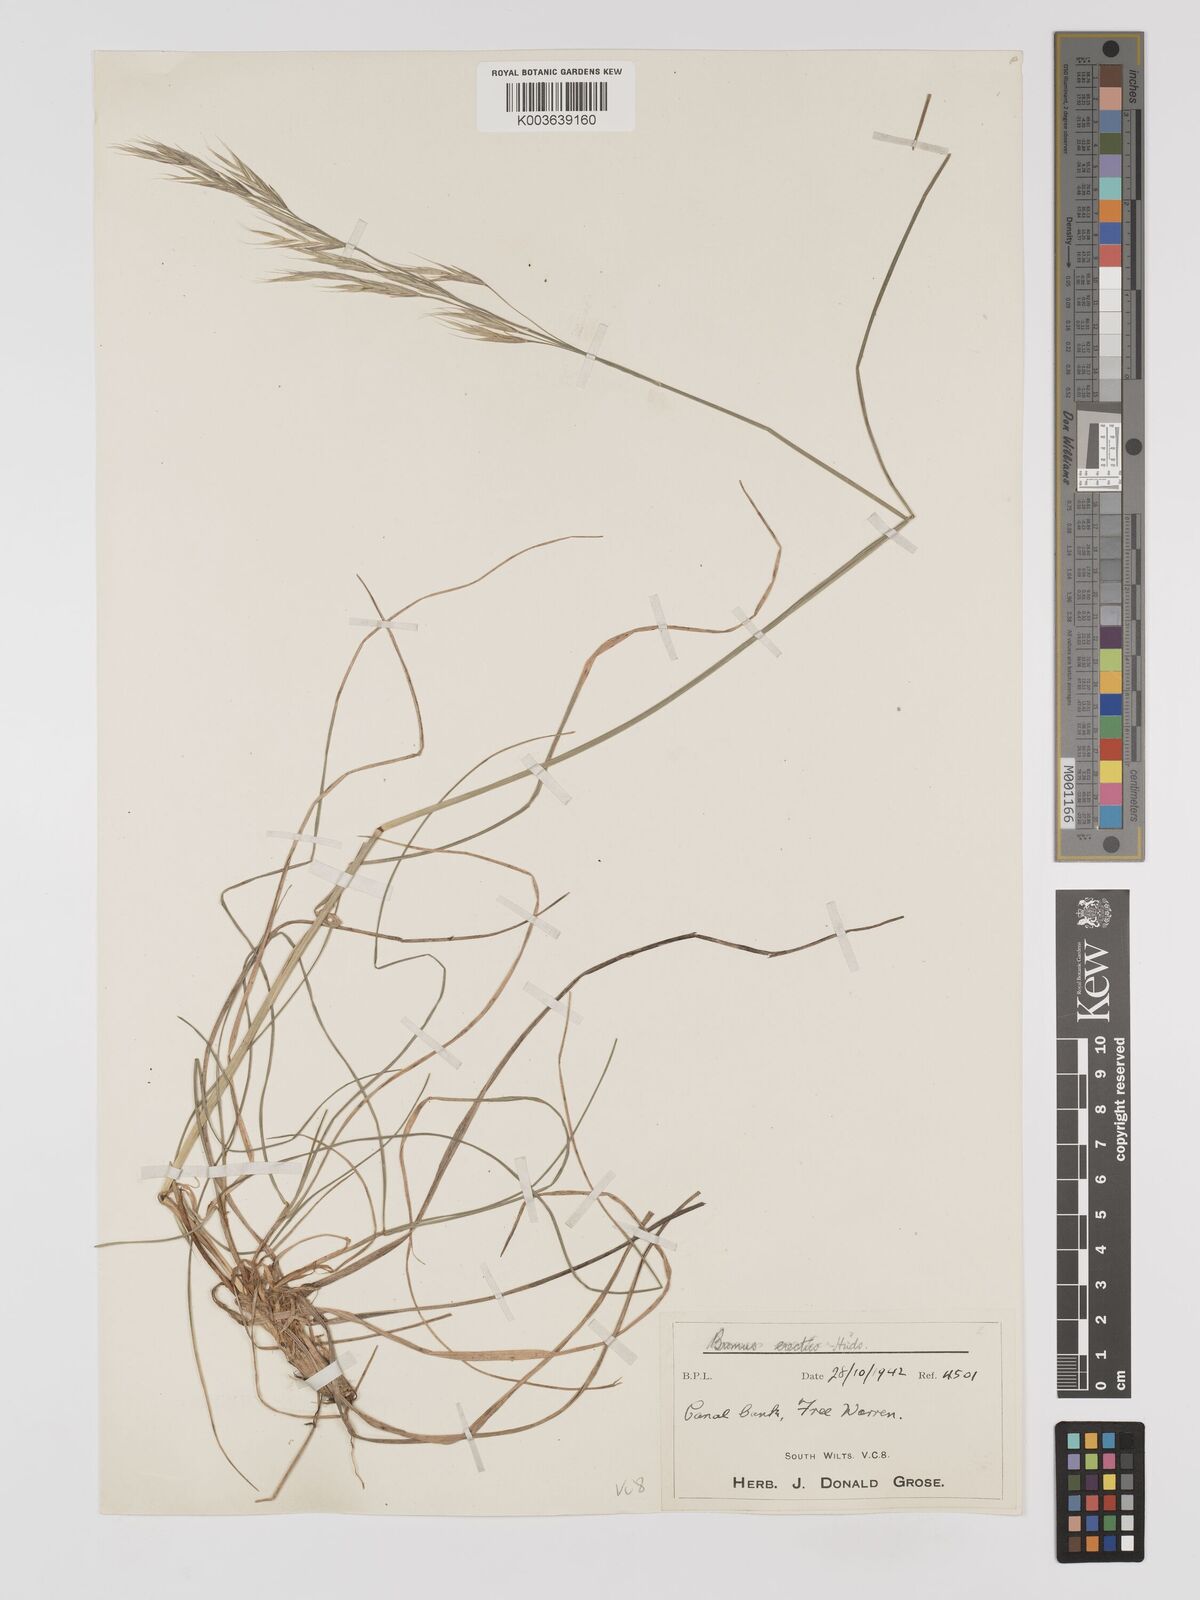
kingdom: Plantae
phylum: Tracheophyta
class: Liliopsida
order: Poales
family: Poaceae
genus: Bromus
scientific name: Bromus erectus
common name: Erect brome
